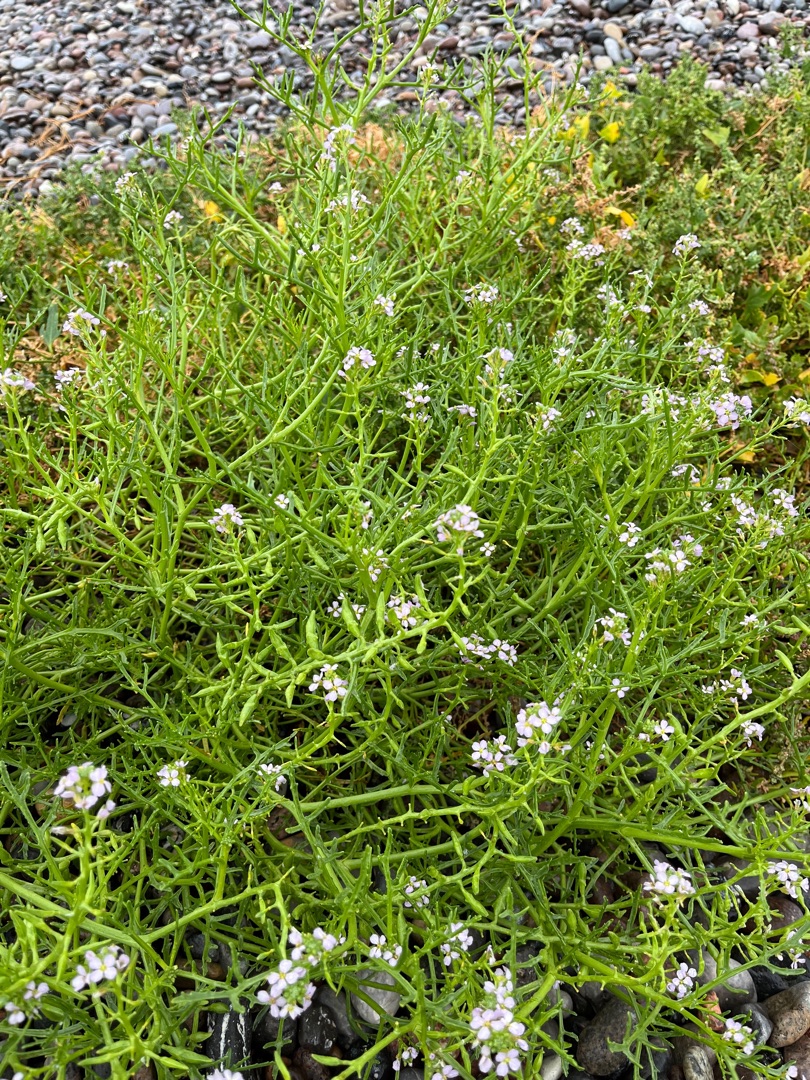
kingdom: Plantae
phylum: Tracheophyta
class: Magnoliopsida
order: Brassicales
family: Brassicaceae
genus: Cakile
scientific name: Cakile maritima
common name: Strandsennep
